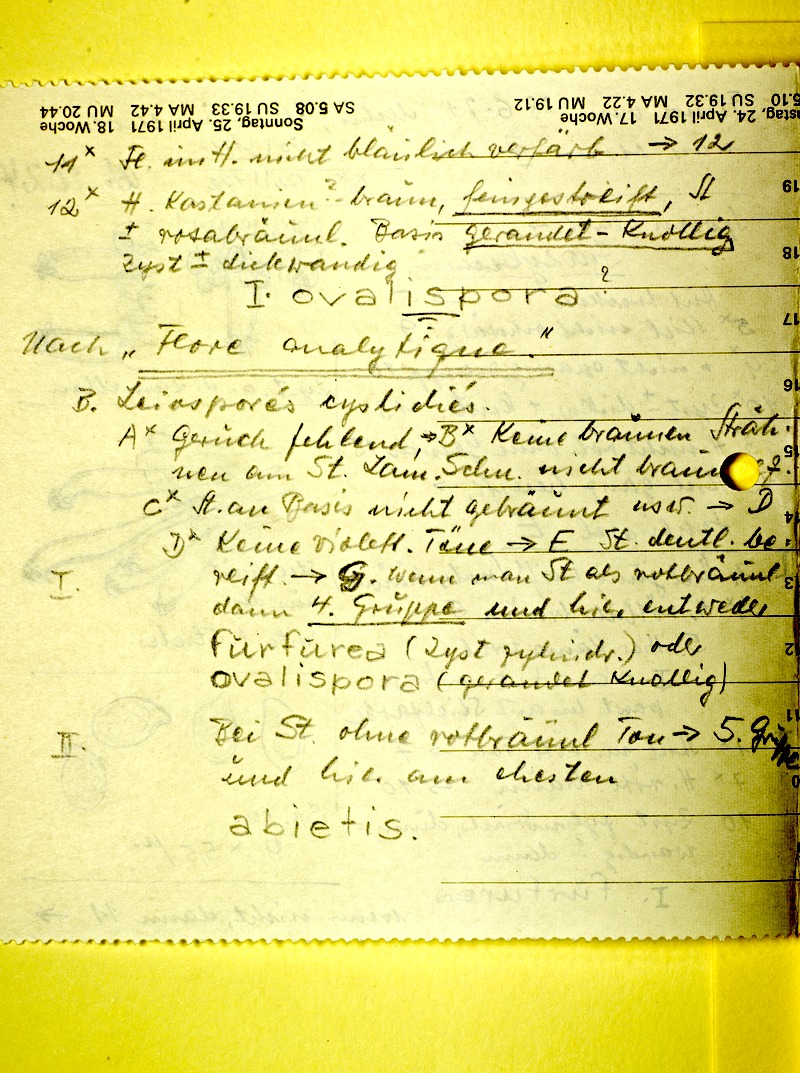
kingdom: Fungi
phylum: Basidiomycota
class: Agaricomycetes
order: Agaricales
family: Inocybaceae
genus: Inocybe
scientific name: Inocybe albomarginata
